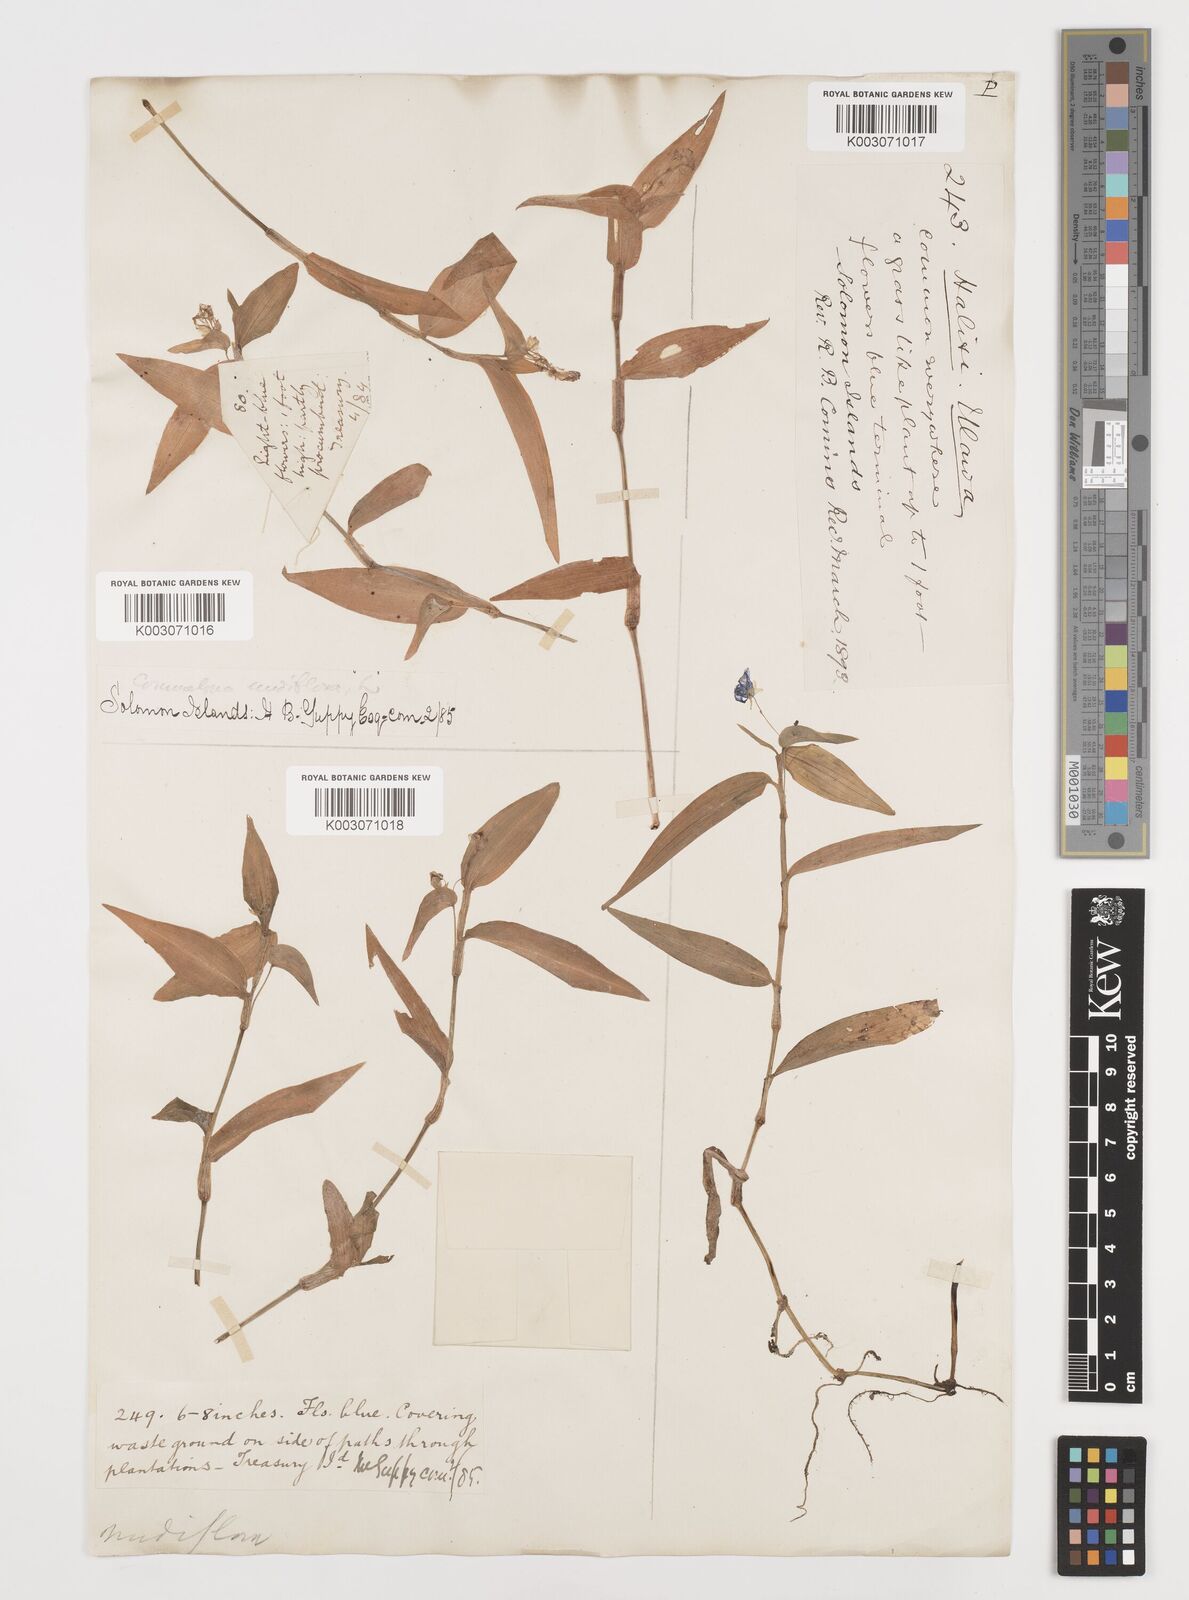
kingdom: Plantae
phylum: Tracheophyta
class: Liliopsida
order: Commelinales
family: Commelinaceae
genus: Commelina
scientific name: Commelina diffusa
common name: Climbing dayflower
